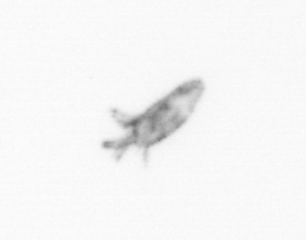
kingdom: Animalia
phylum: Arthropoda
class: Maxillopoda
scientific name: Maxillopoda
